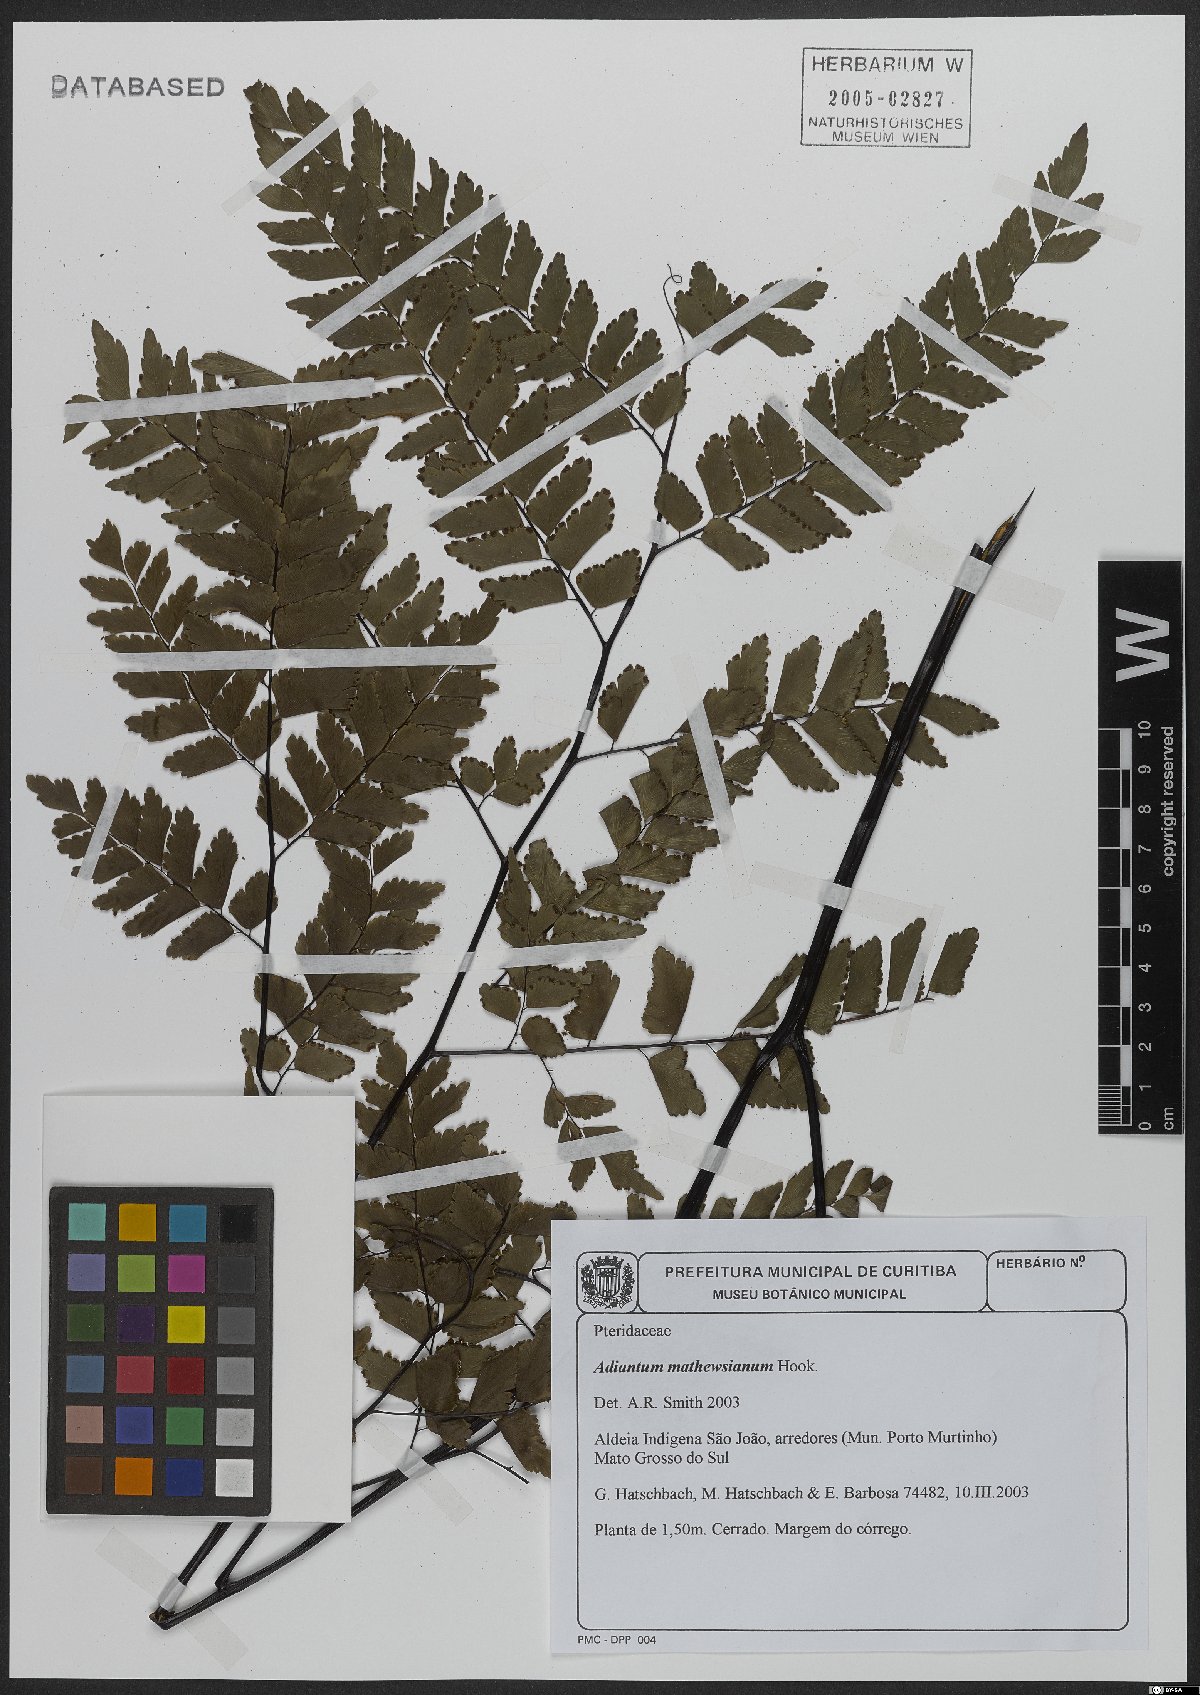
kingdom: Plantae
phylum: Tracheophyta
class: Polypodiopsida
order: Polypodiales
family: Pteridaceae
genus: Adiantum
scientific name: Adiantum mathewsianum
